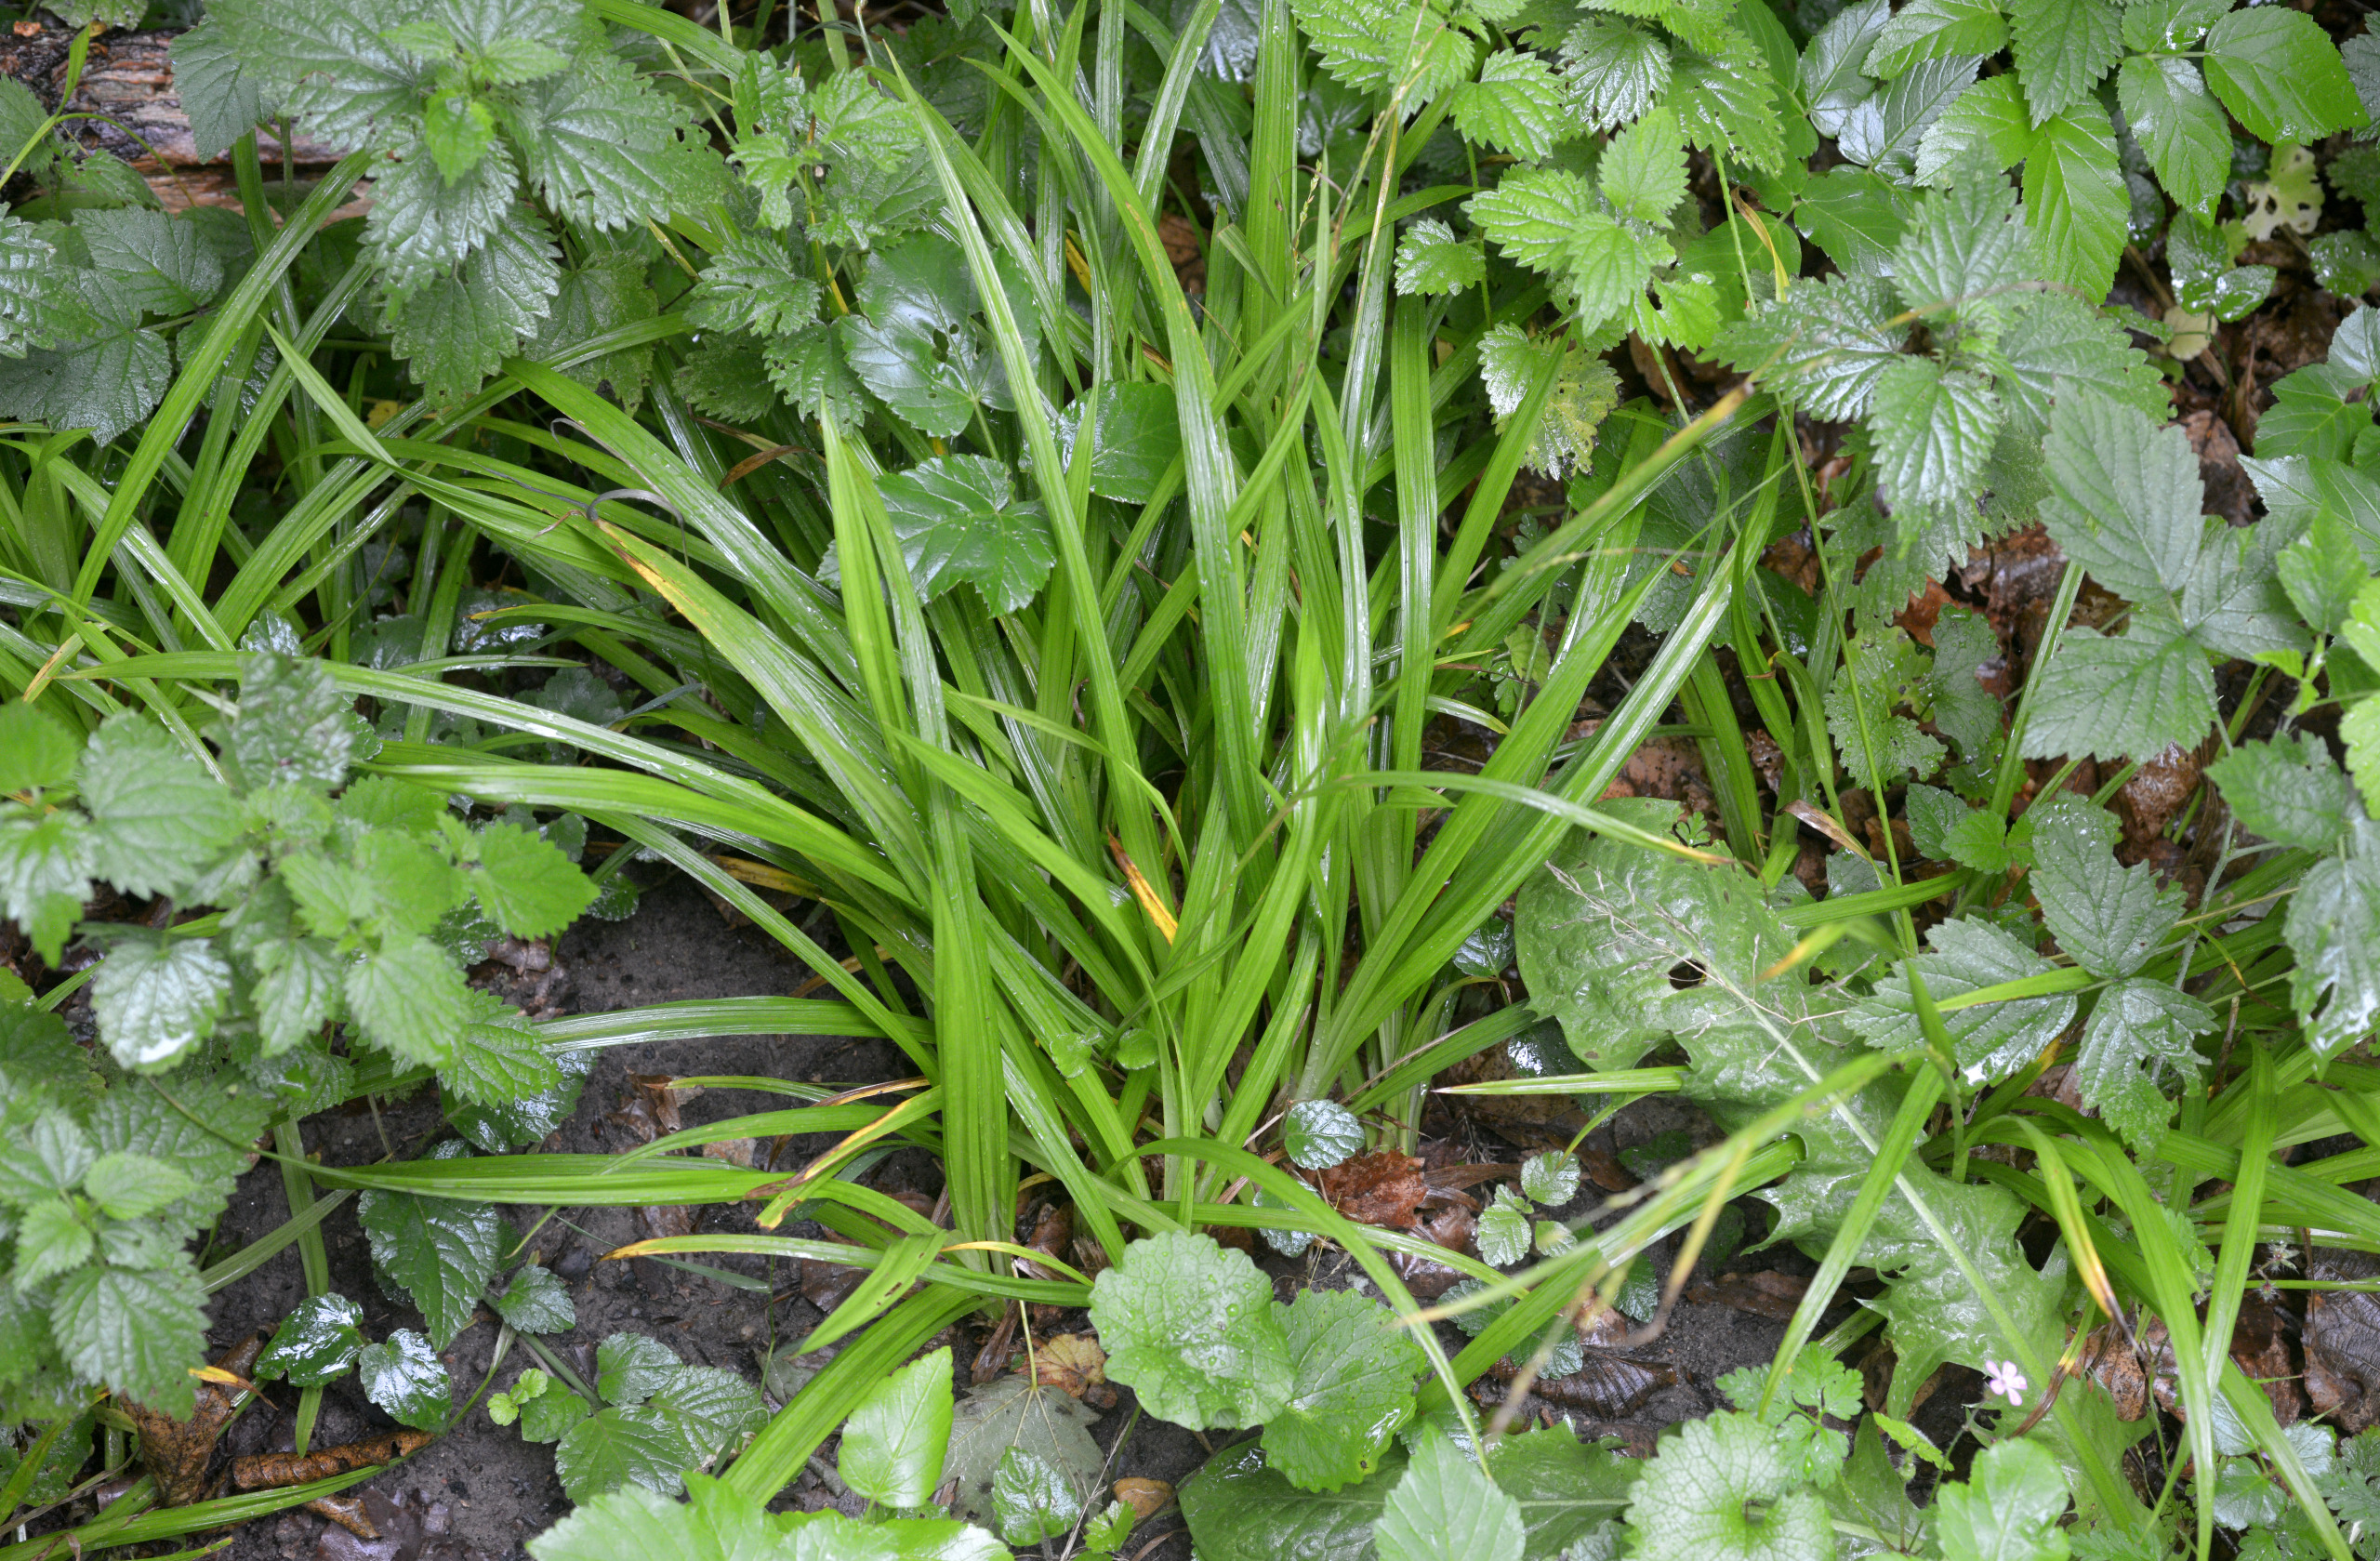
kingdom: Plantae
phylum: Tracheophyta
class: Liliopsida
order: Poales
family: Cyperaceae
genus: Carex
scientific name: Carex strigosa
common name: Tyndakset star
